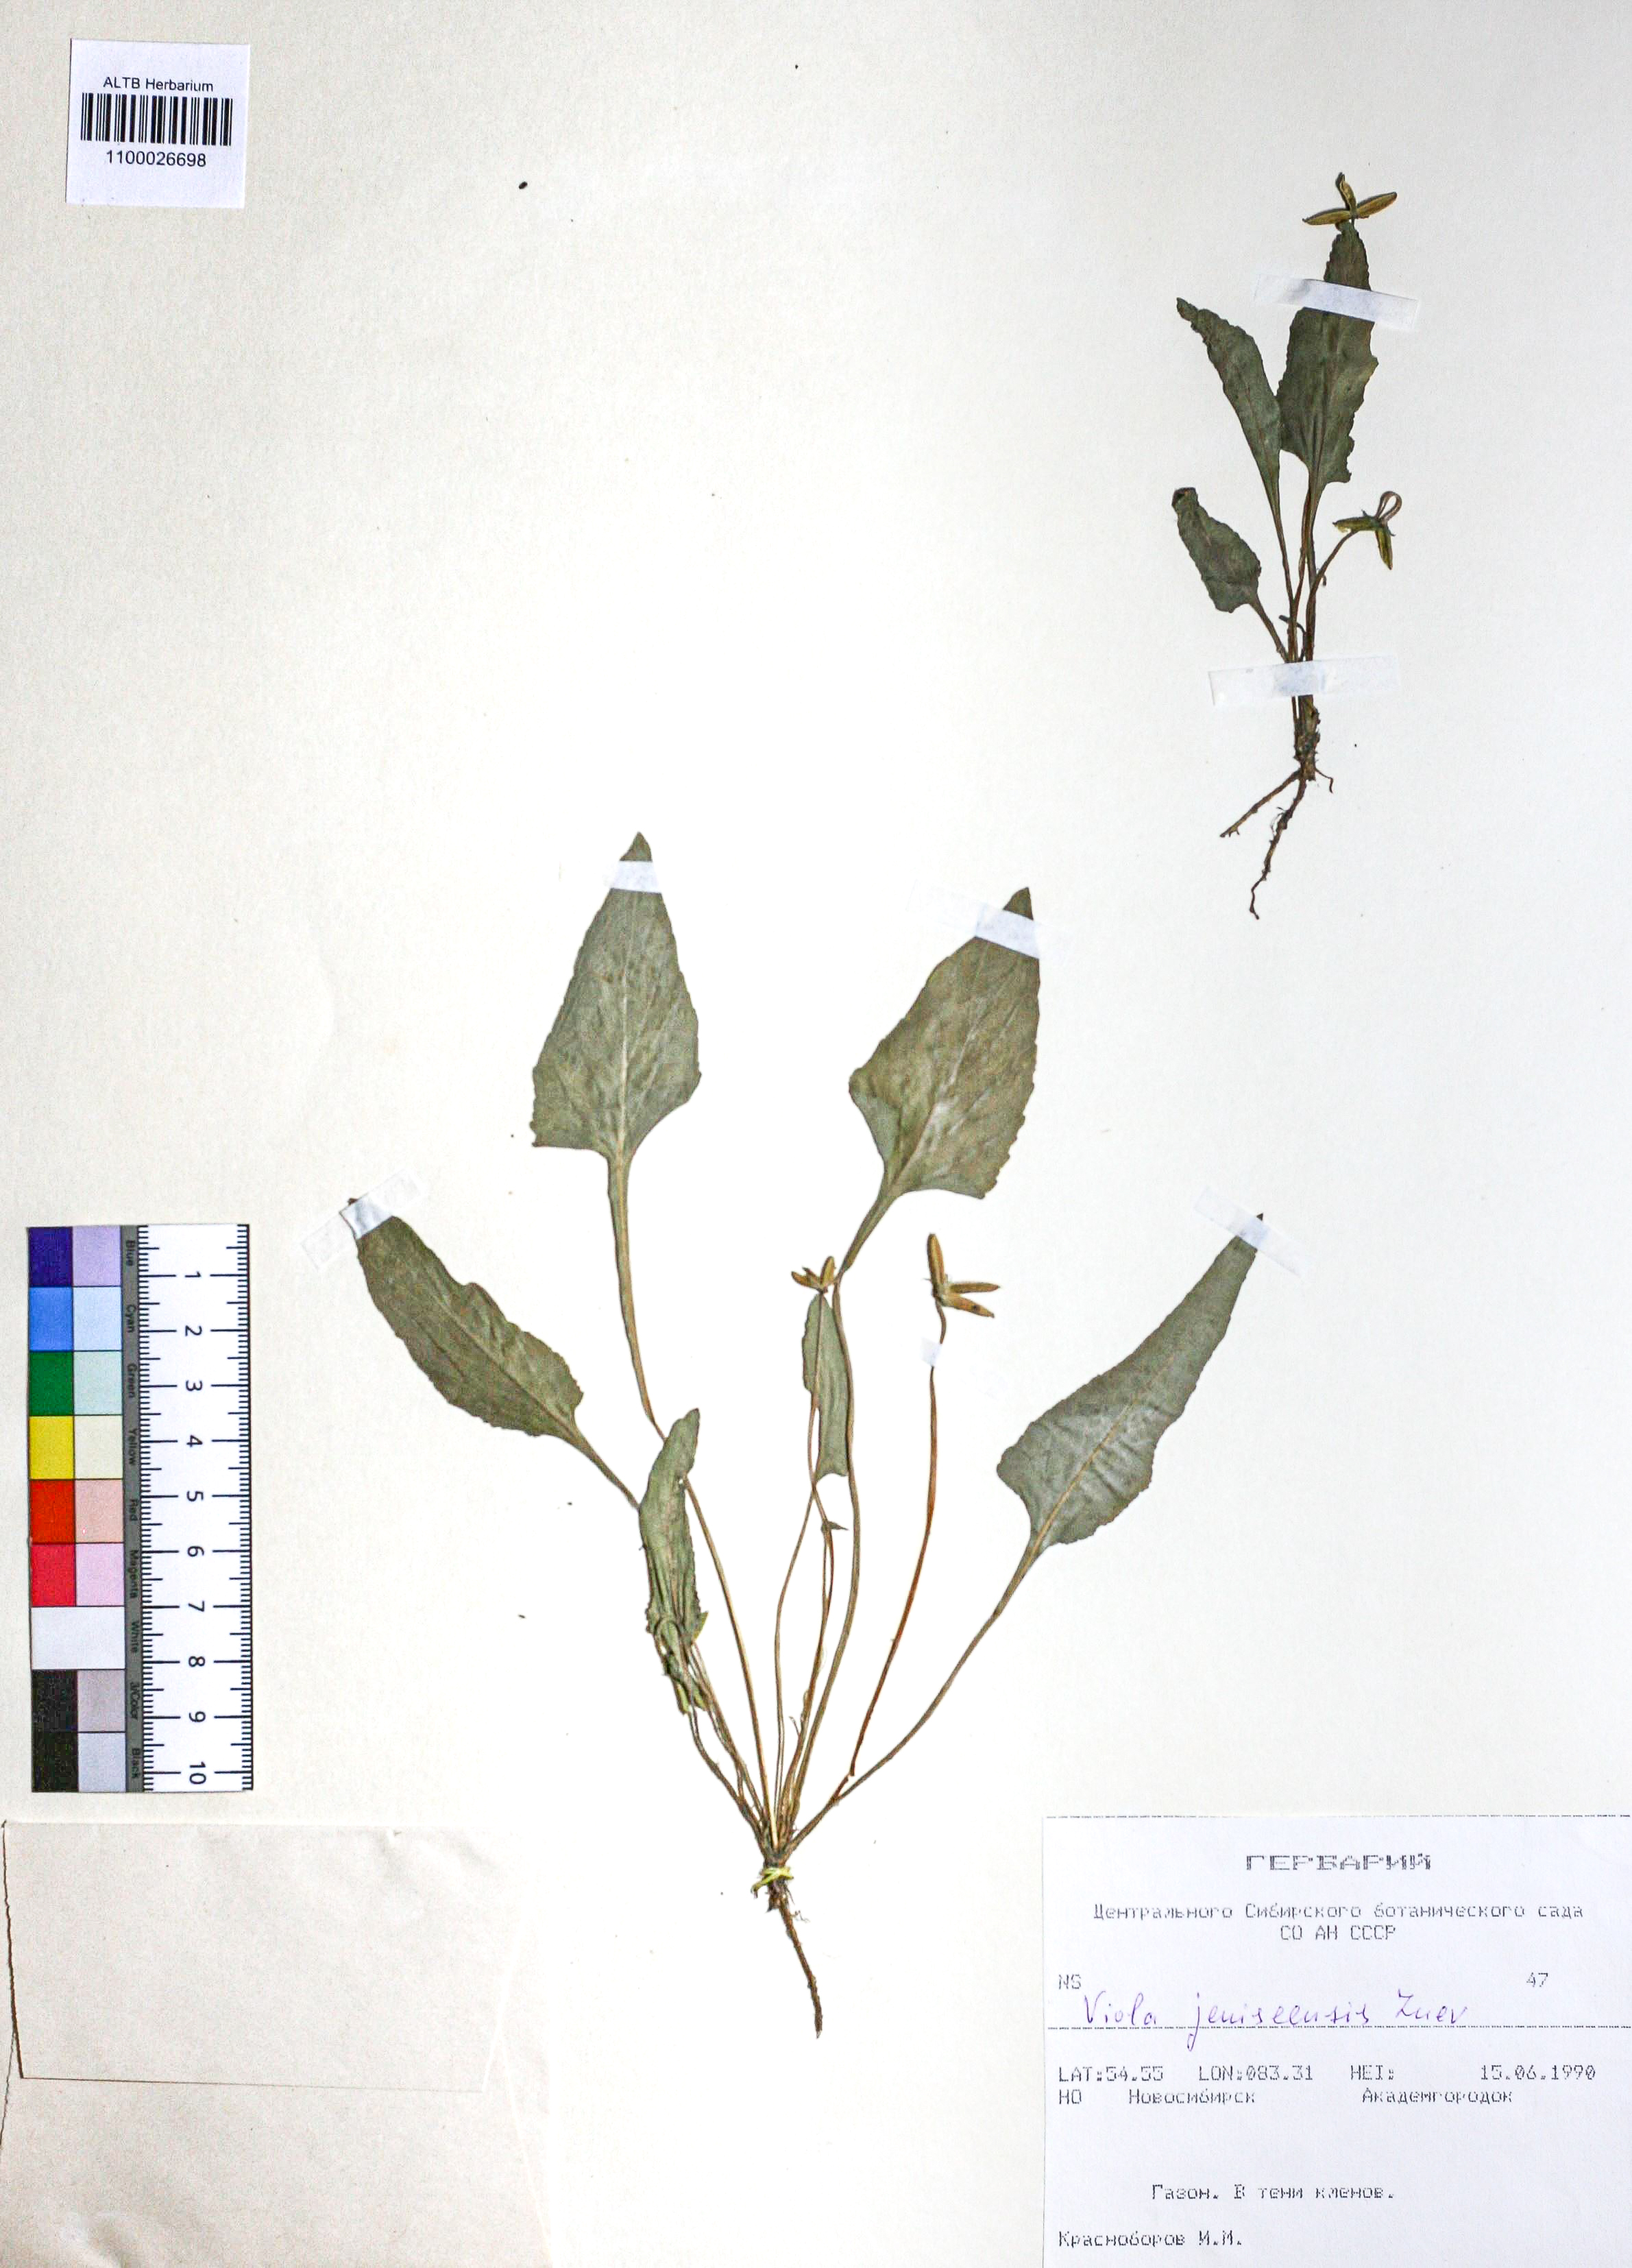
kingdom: Plantae
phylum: Tracheophyta
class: Magnoliopsida
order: Malpighiales
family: Violaceae
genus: Viola
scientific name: Viola prionantha
